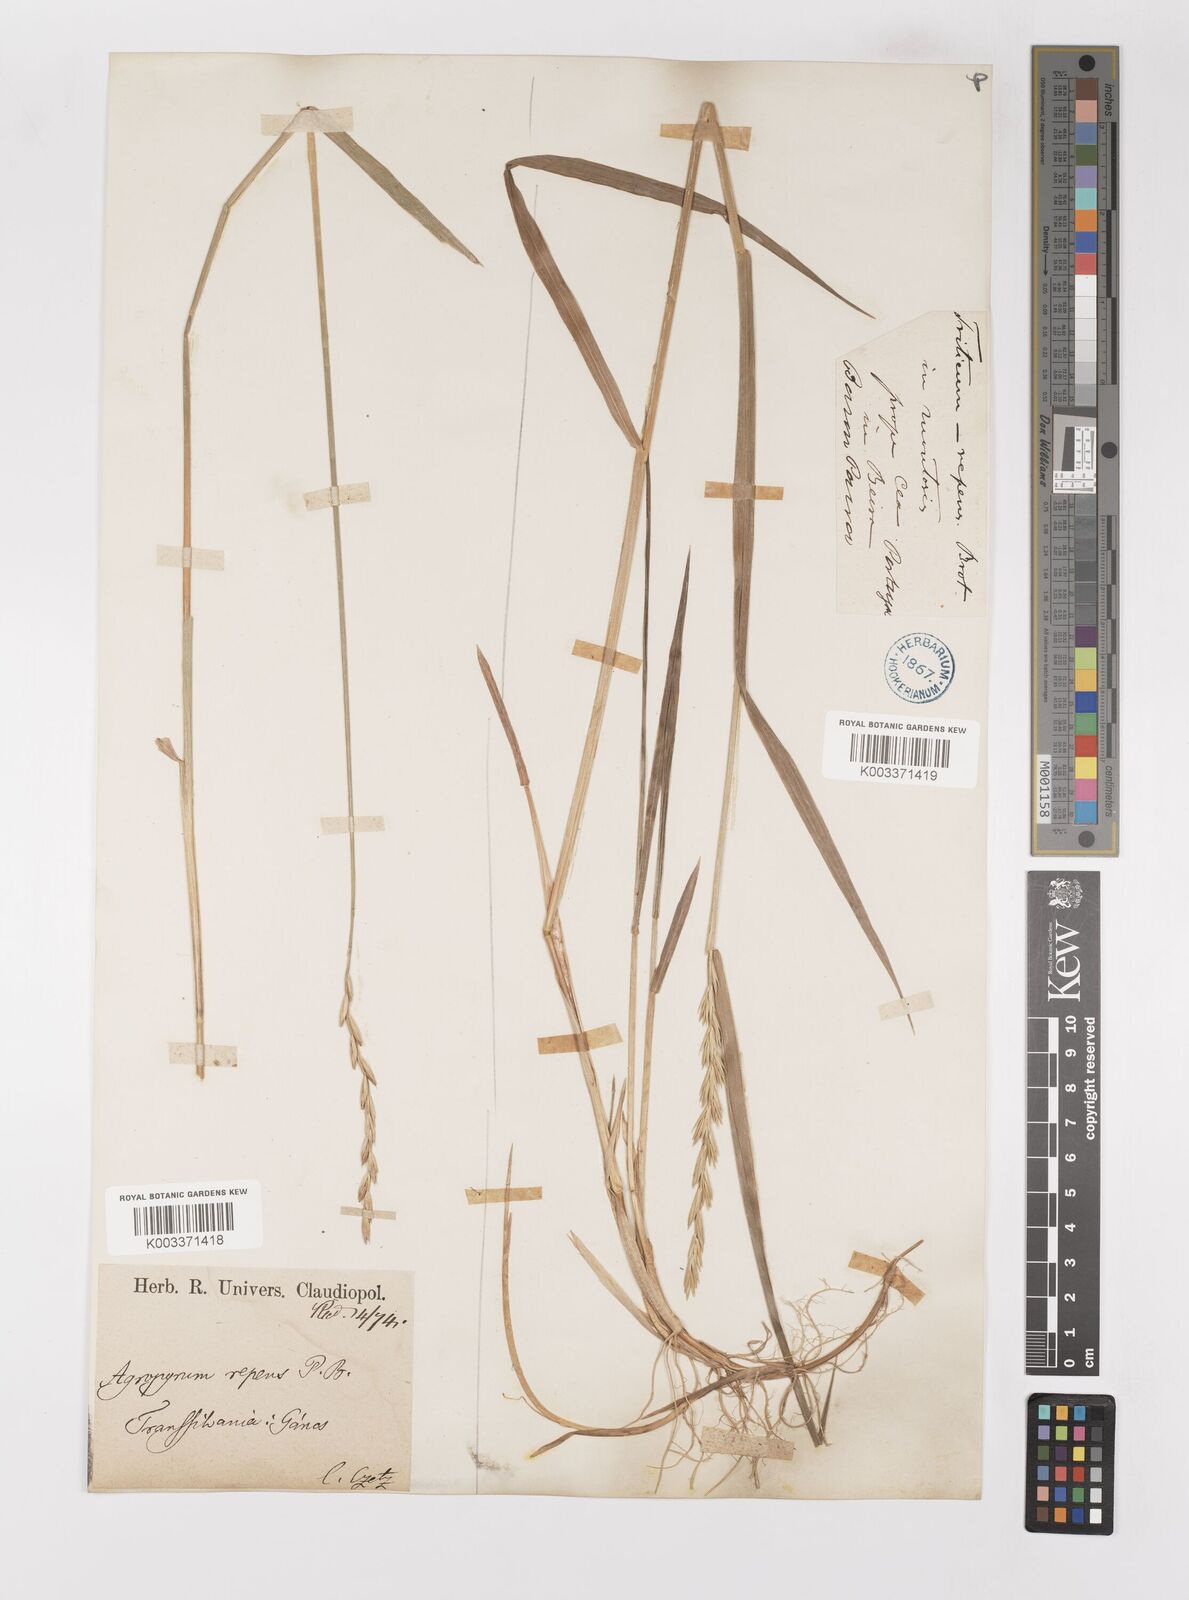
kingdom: Plantae
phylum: Tracheophyta
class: Liliopsida
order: Poales
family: Poaceae
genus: Elymus
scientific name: Elymus repens
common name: Quackgrass
